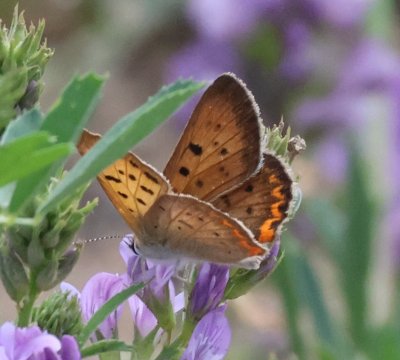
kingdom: Animalia
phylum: Arthropoda
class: Insecta
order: Lepidoptera
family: Lycaenidae
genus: Lycaeides
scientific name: Lycaeides melissa
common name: Melissa Blue
